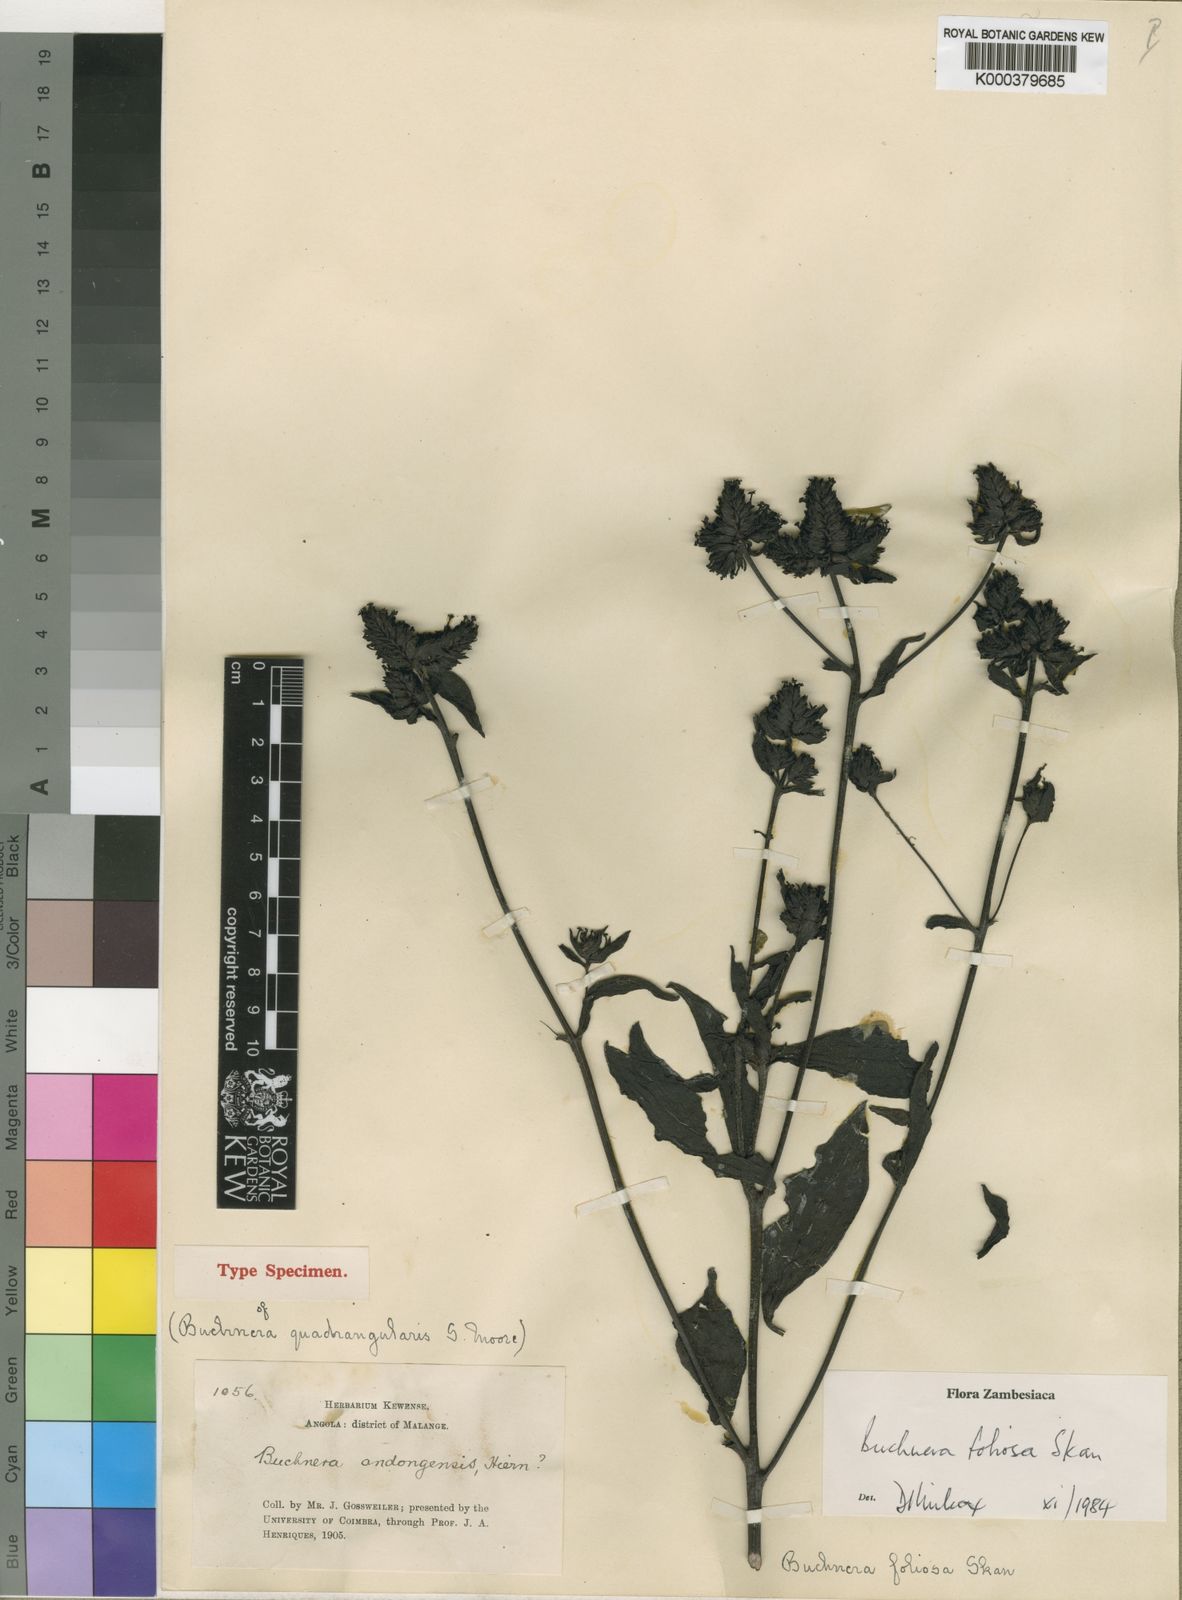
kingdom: Plantae
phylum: Tracheophyta
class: Magnoliopsida
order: Lamiales
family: Orobanchaceae
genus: Buchnera
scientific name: Buchnera foliosa
